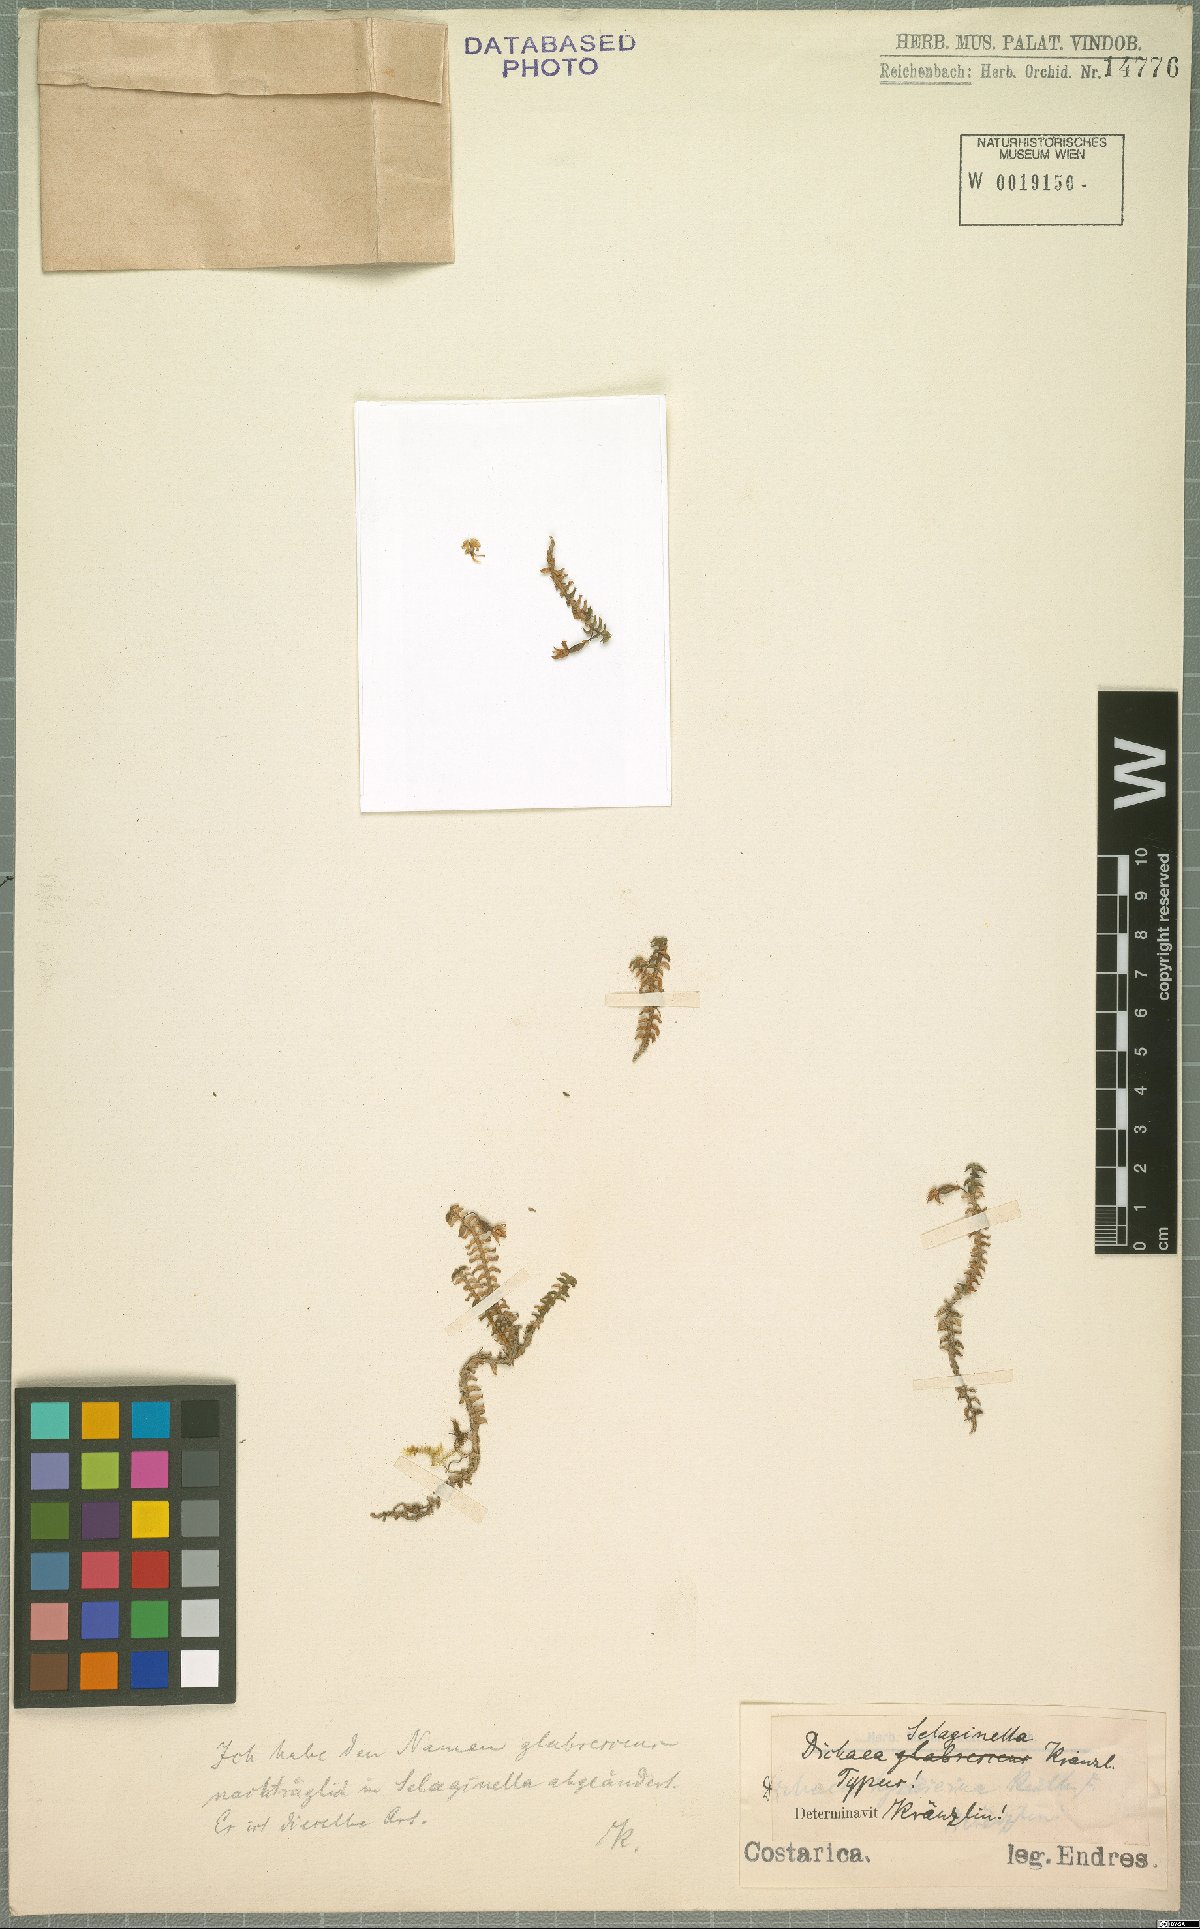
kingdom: Plantae
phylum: Tracheophyta
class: Liliopsida
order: Asparagales
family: Orchidaceae
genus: Dichaea
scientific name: Dichaea selaginella
